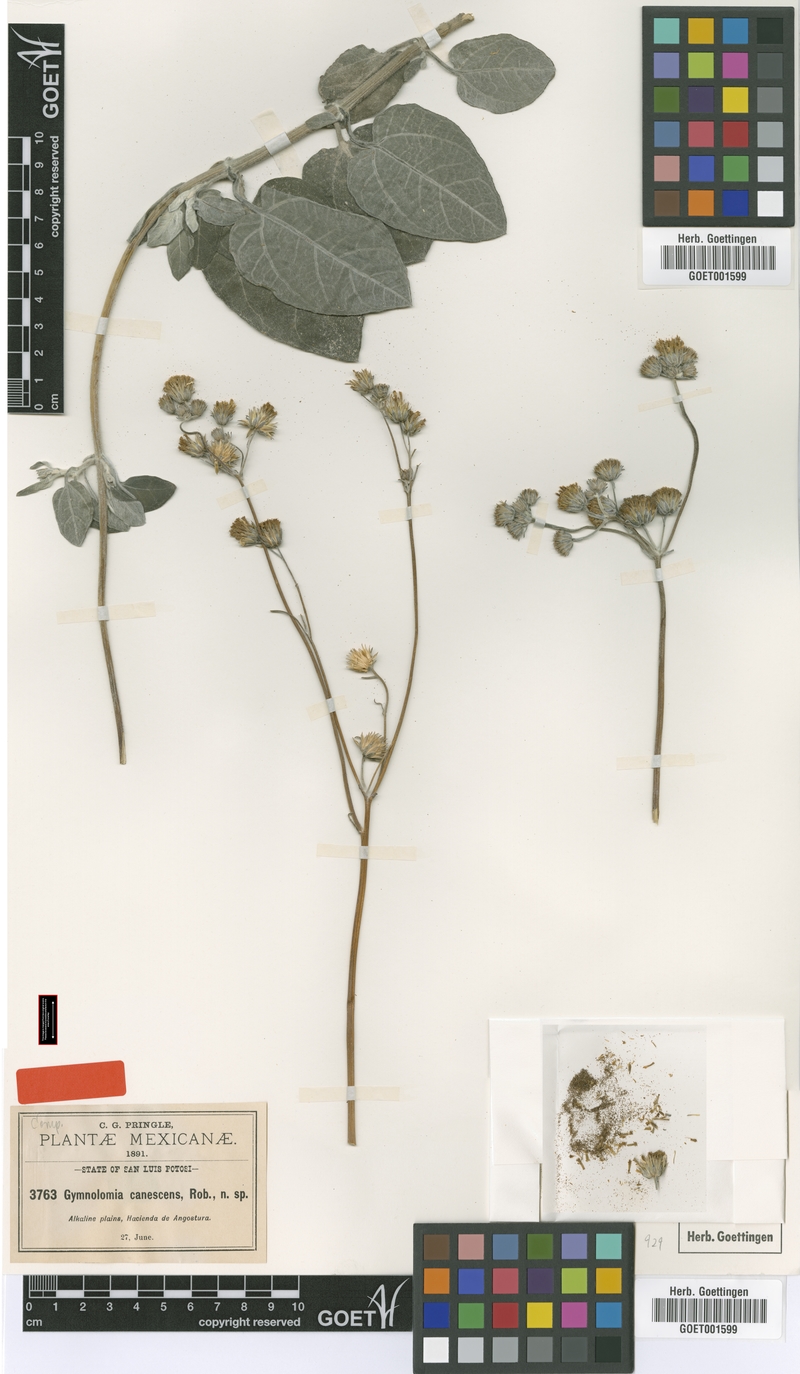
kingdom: Plantae
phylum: Tracheophyta
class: Magnoliopsida
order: Asterales
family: Asteraceae
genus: Aldama
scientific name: Aldama canescens
